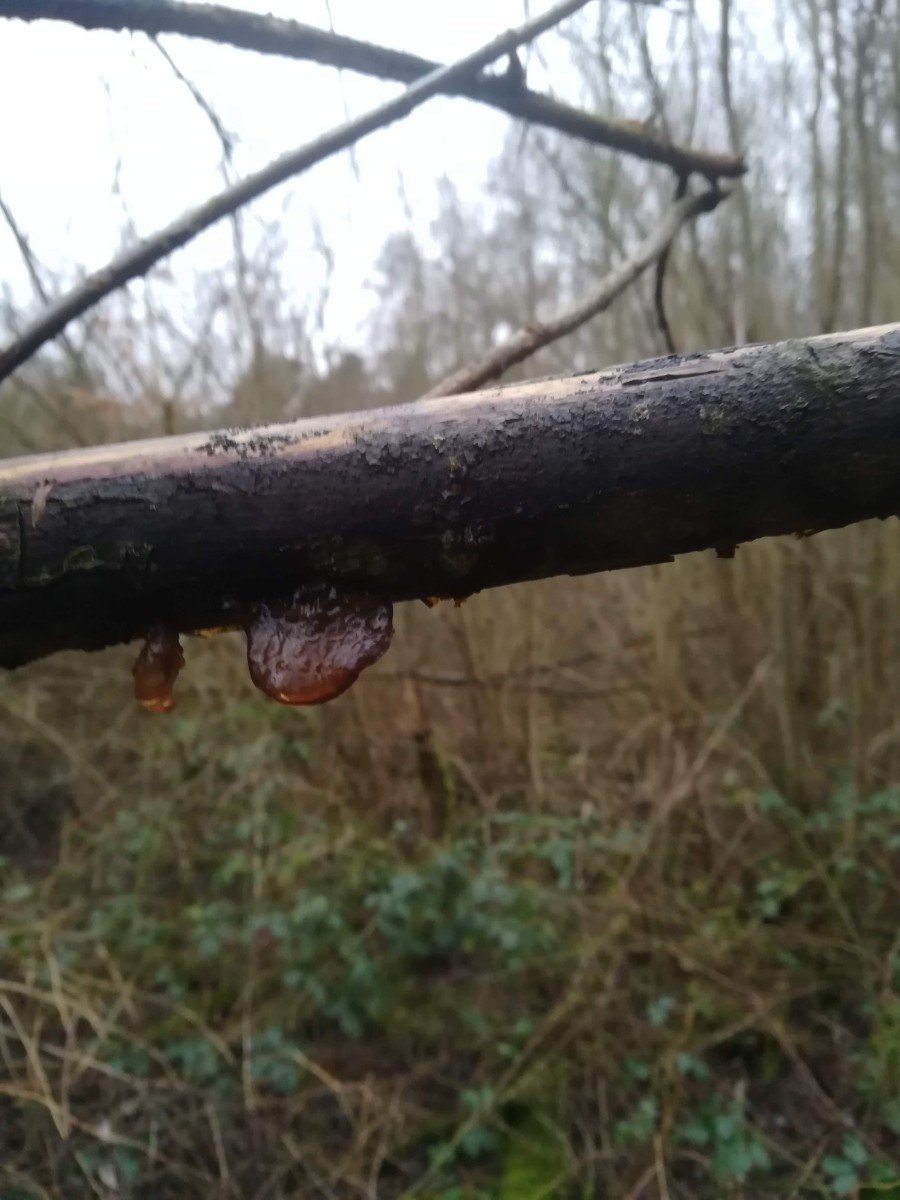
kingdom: Fungi
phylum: Basidiomycota
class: Agaricomycetes
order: Auriculariales
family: Auriculariaceae
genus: Exidia
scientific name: Exidia recisa
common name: pile-bævretop
